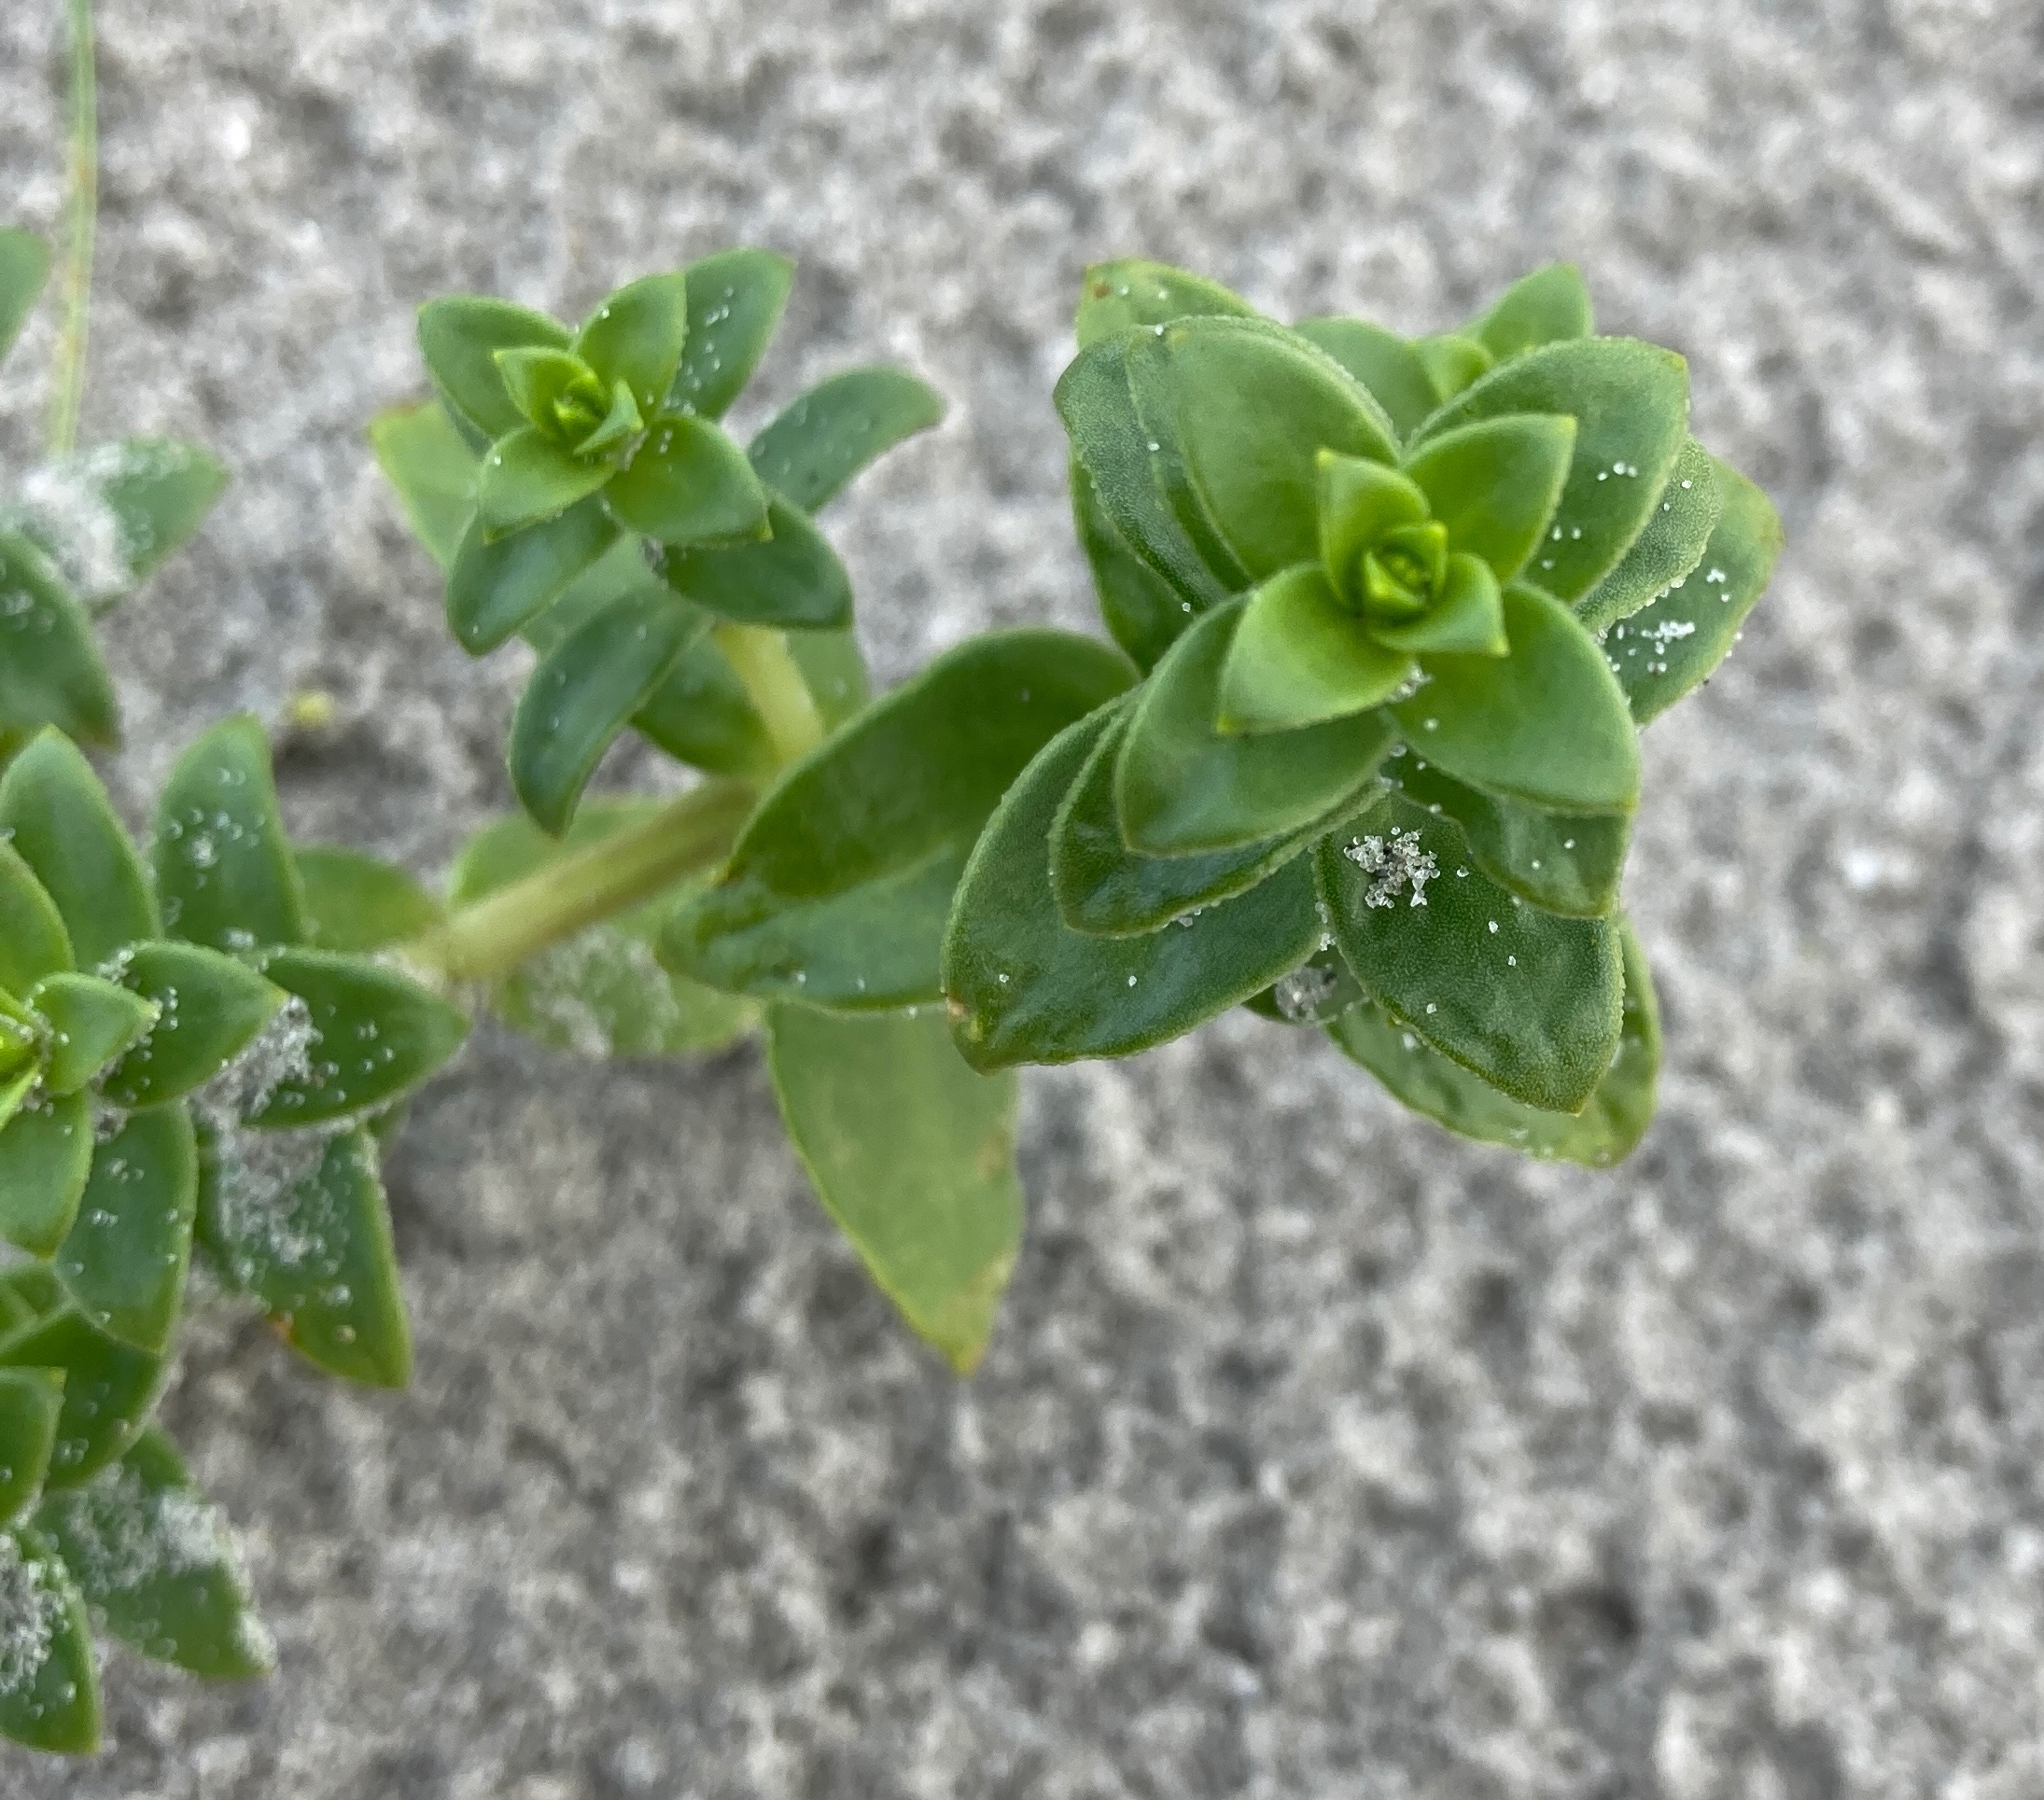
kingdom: Plantae
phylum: Tracheophyta
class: Magnoliopsida
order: Caryophyllales
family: Caryophyllaceae
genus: Honckenya
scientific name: Honckenya peploides
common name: Strandarve
